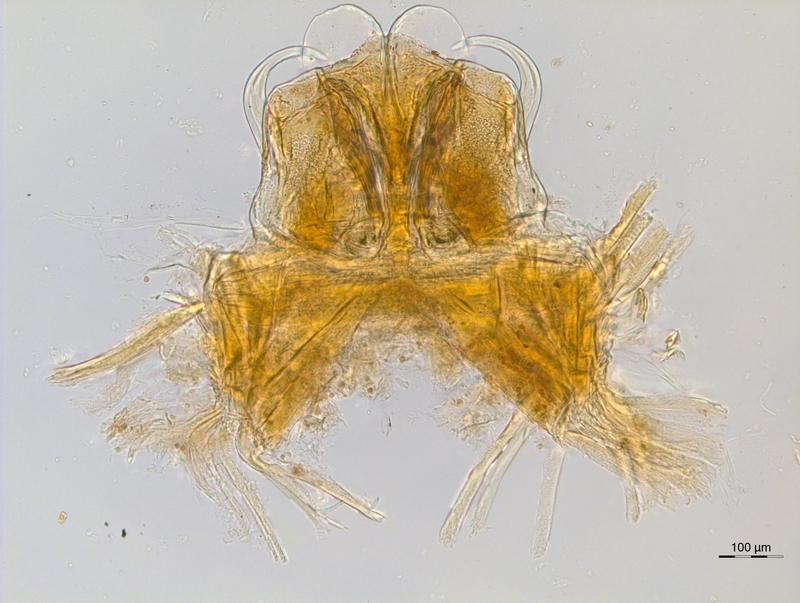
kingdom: Animalia
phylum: Arthropoda
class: Diplopoda
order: Chordeumatida
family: Anthogonidae
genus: Haasia
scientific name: Haasia tridentis
